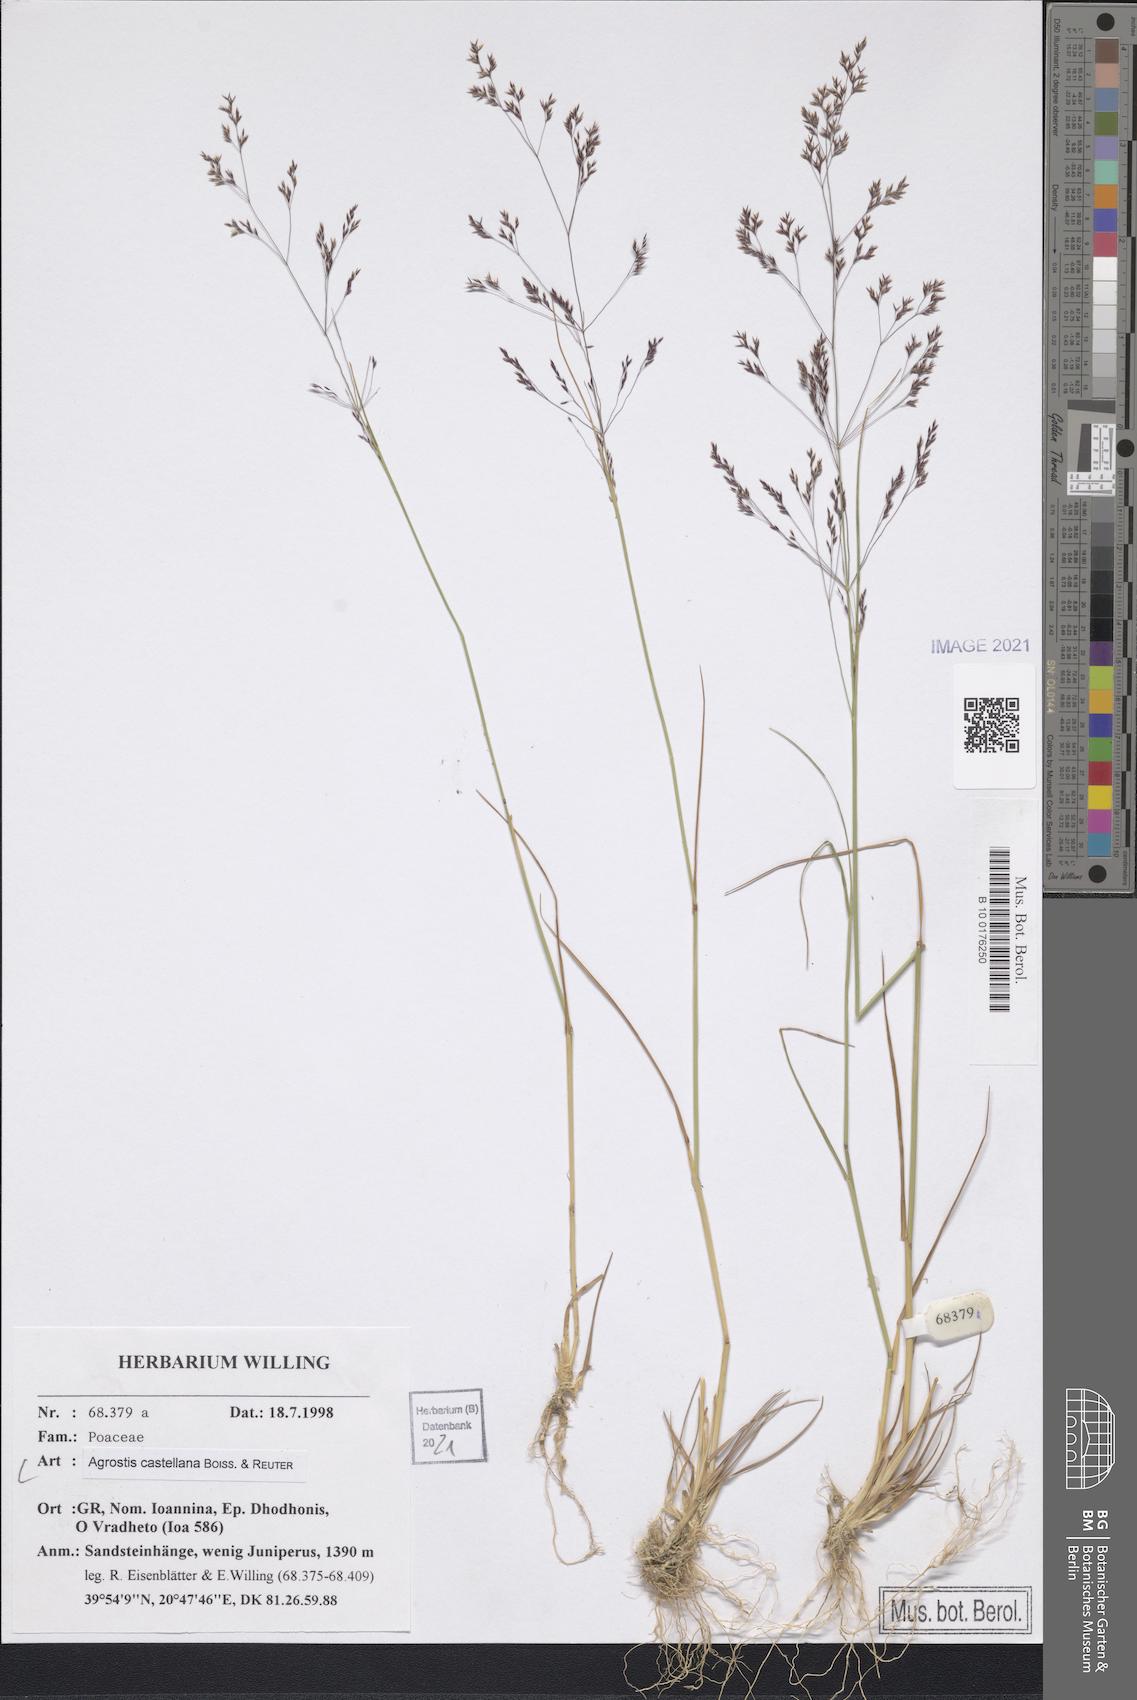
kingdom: Plantae
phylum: Tracheophyta
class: Liliopsida
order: Poales
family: Poaceae
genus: Agrostis
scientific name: Agrostis castellana
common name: Highland bent
